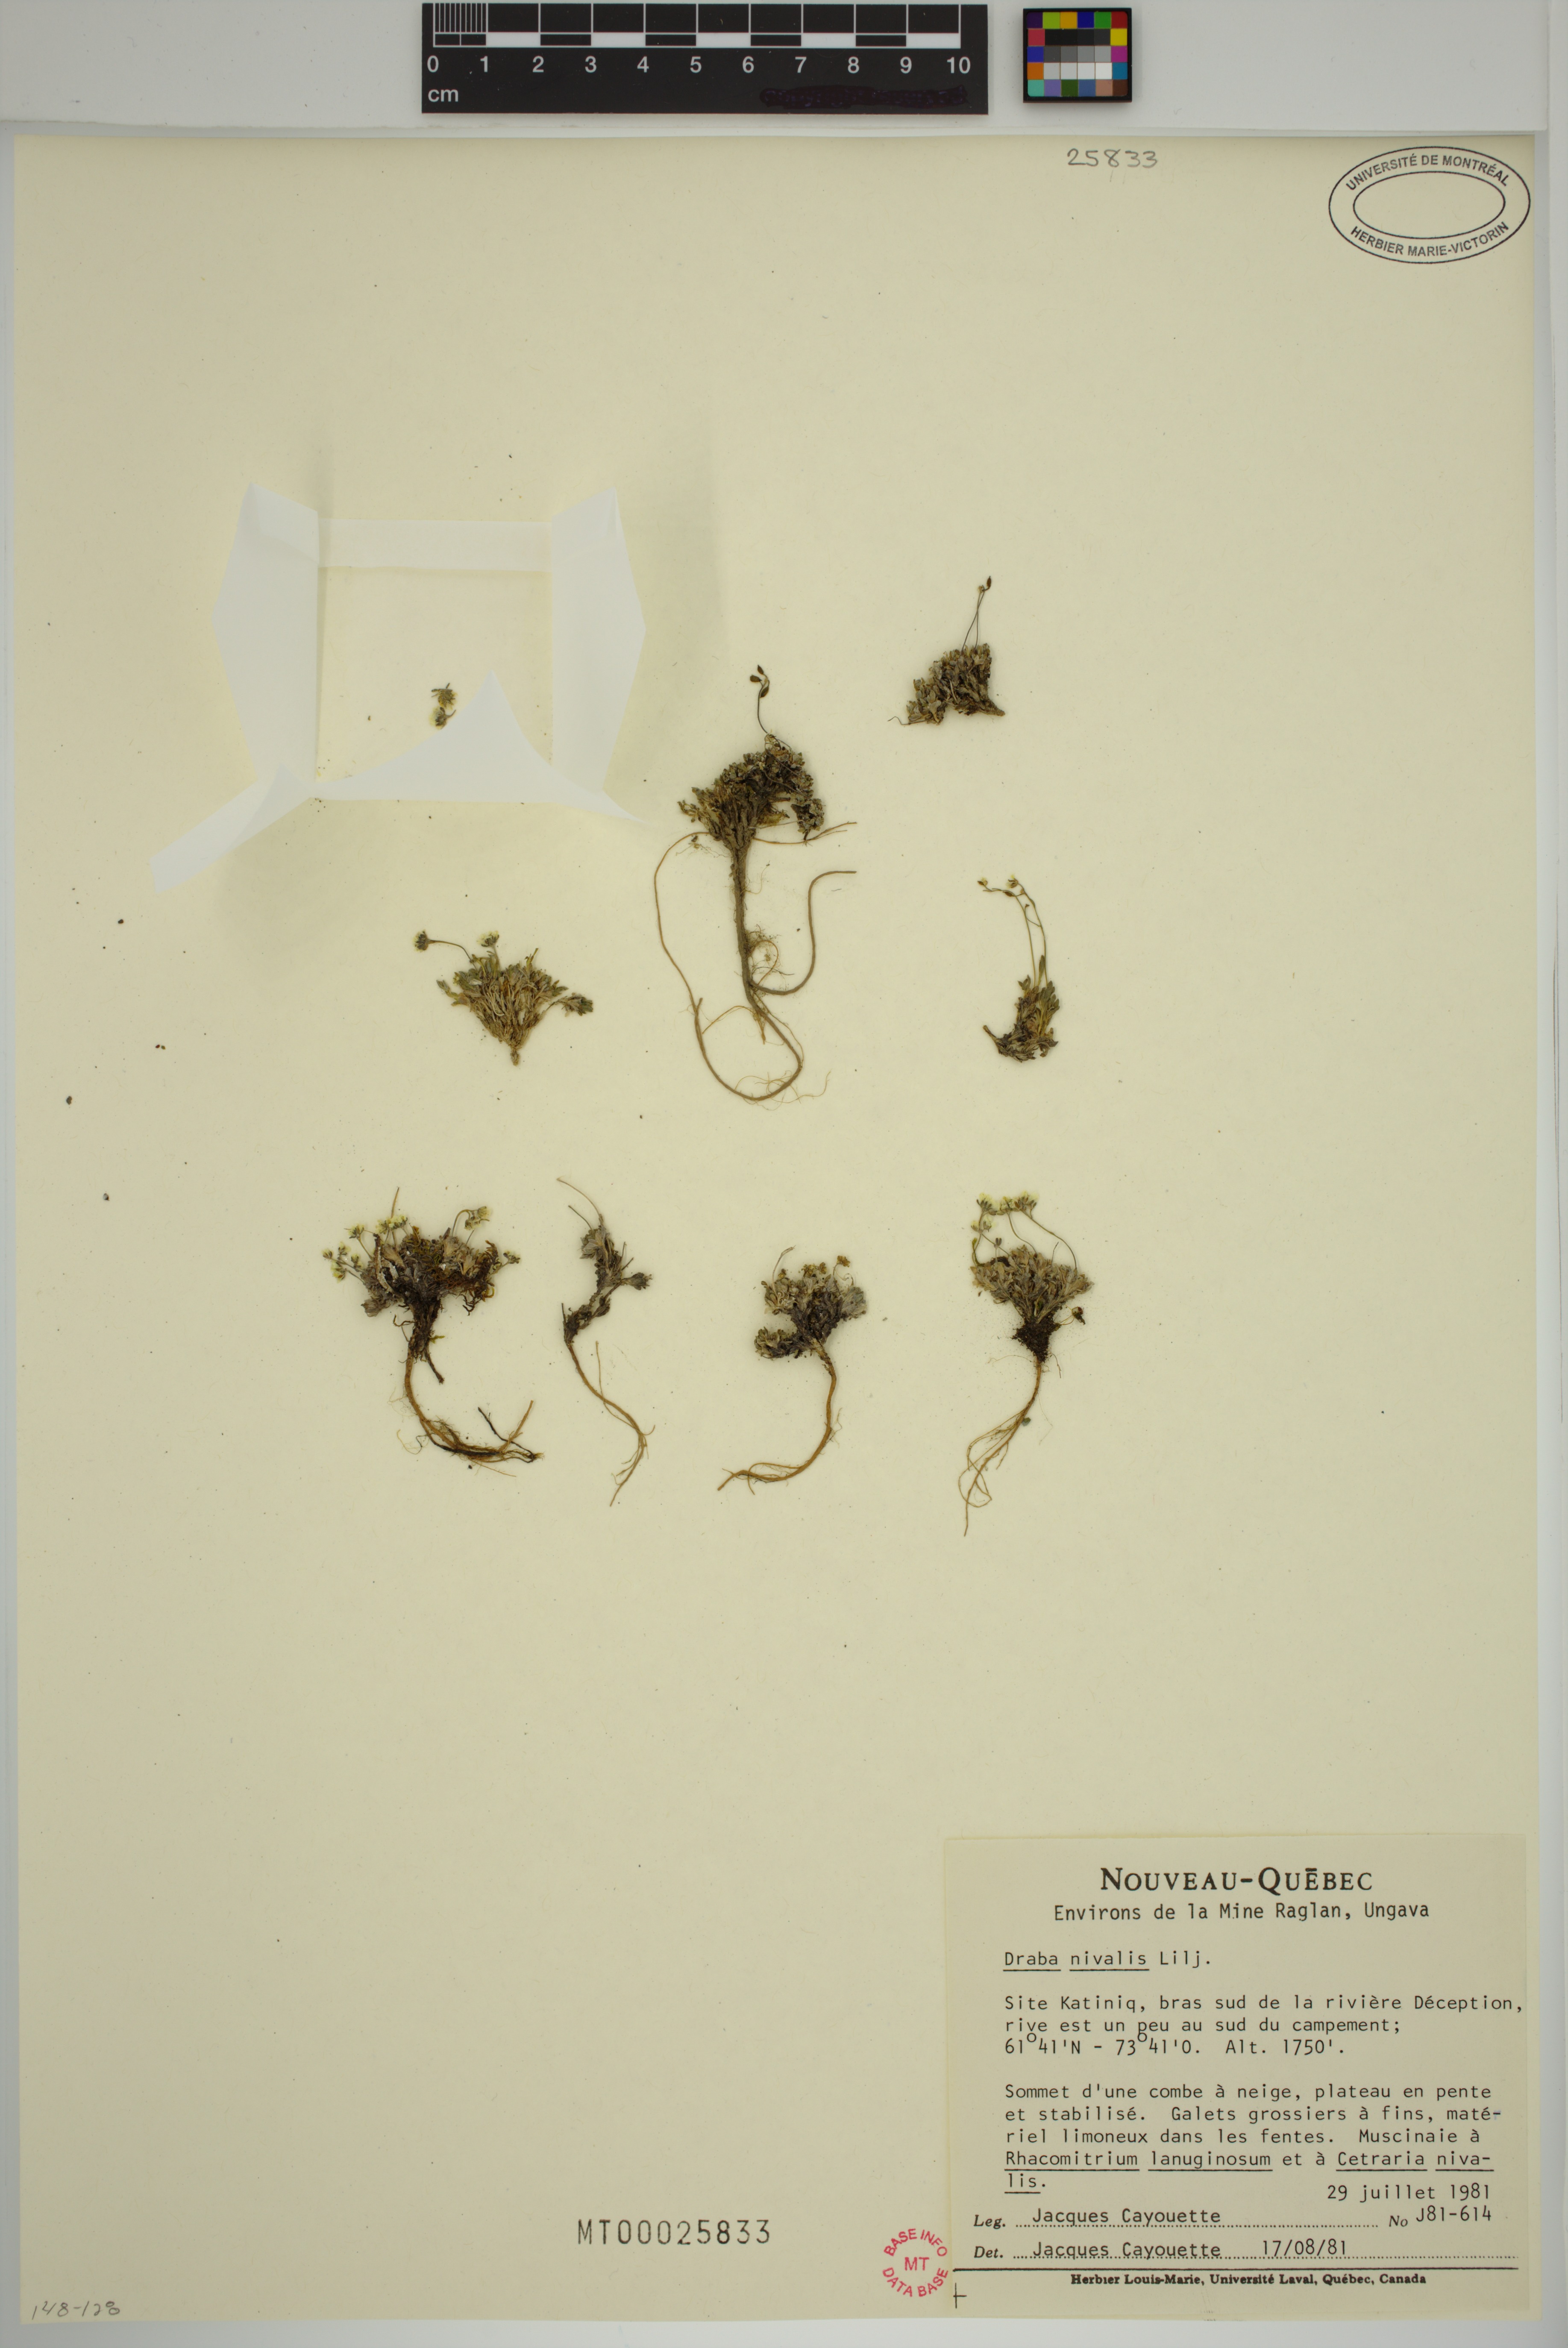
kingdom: Plantae
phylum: Tracheophyta
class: Magnoliopsida
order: Brassicales
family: Brassicaceae
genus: Draba
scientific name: Draba nivalis
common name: Snow draba
